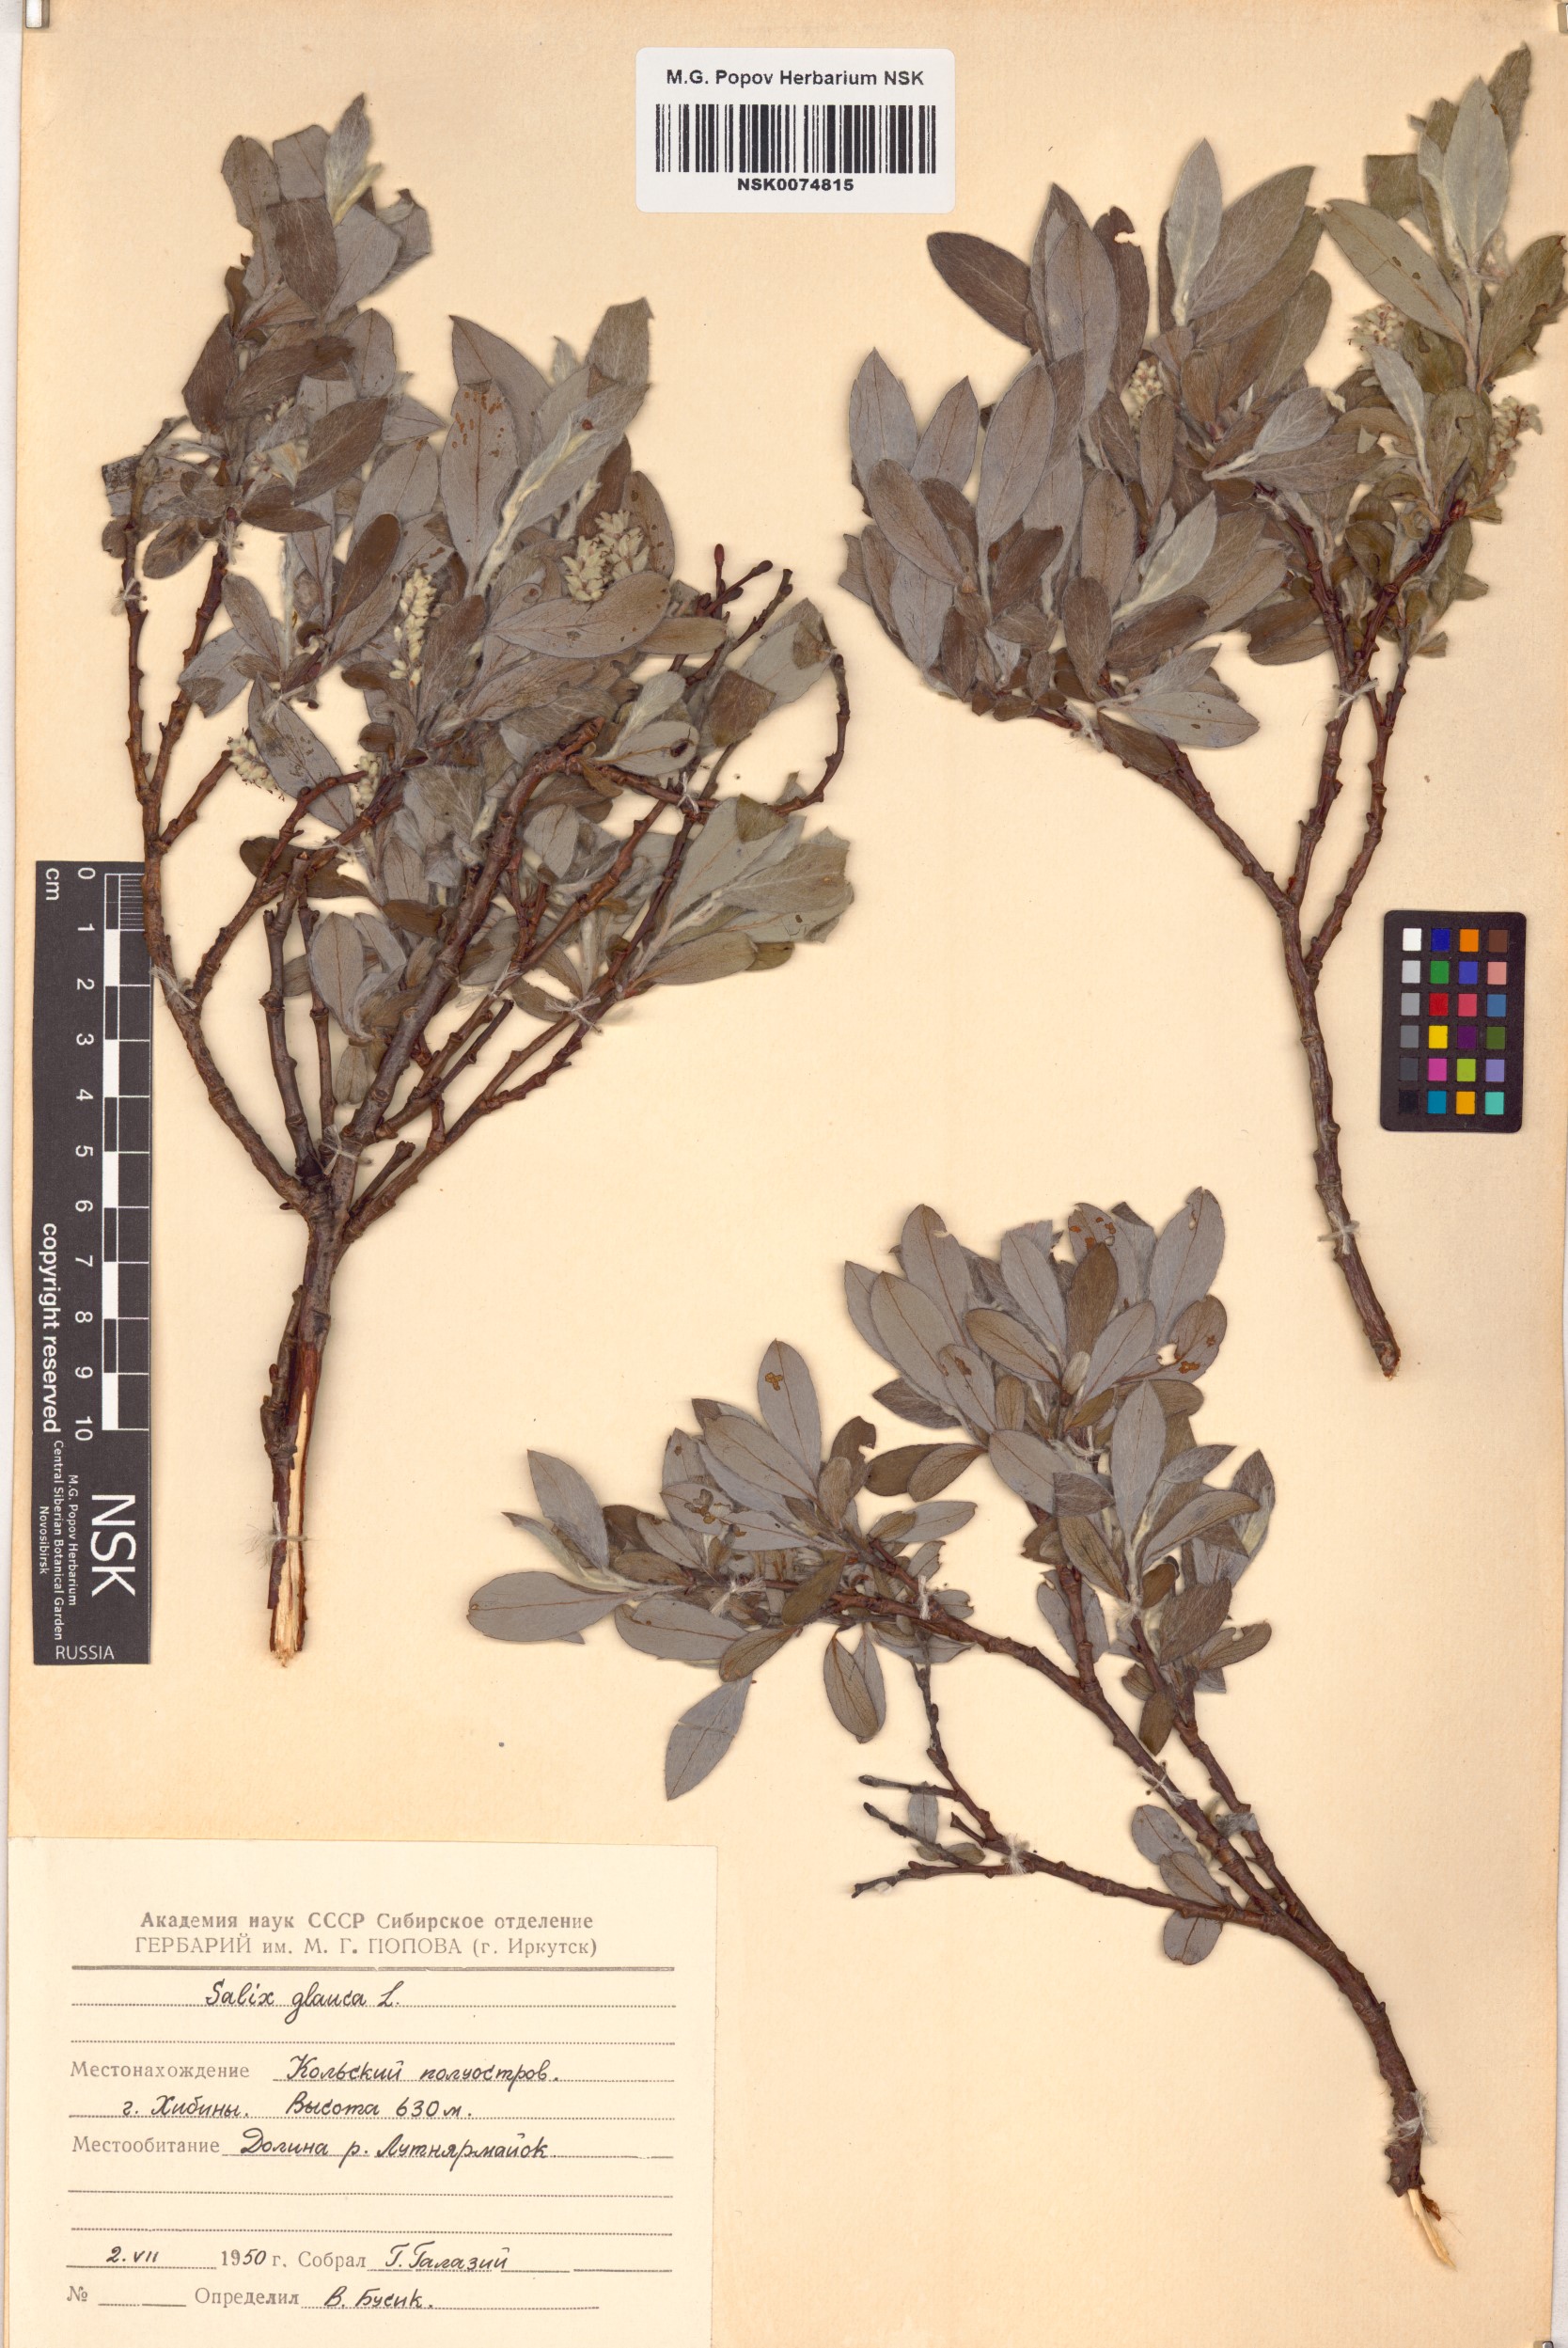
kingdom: Plantae
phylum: Tracheophyta
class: Magnoliopsida
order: Malpighiales
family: Salicaceae
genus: Salix
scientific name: Salix glauca
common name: Glaucous willow
